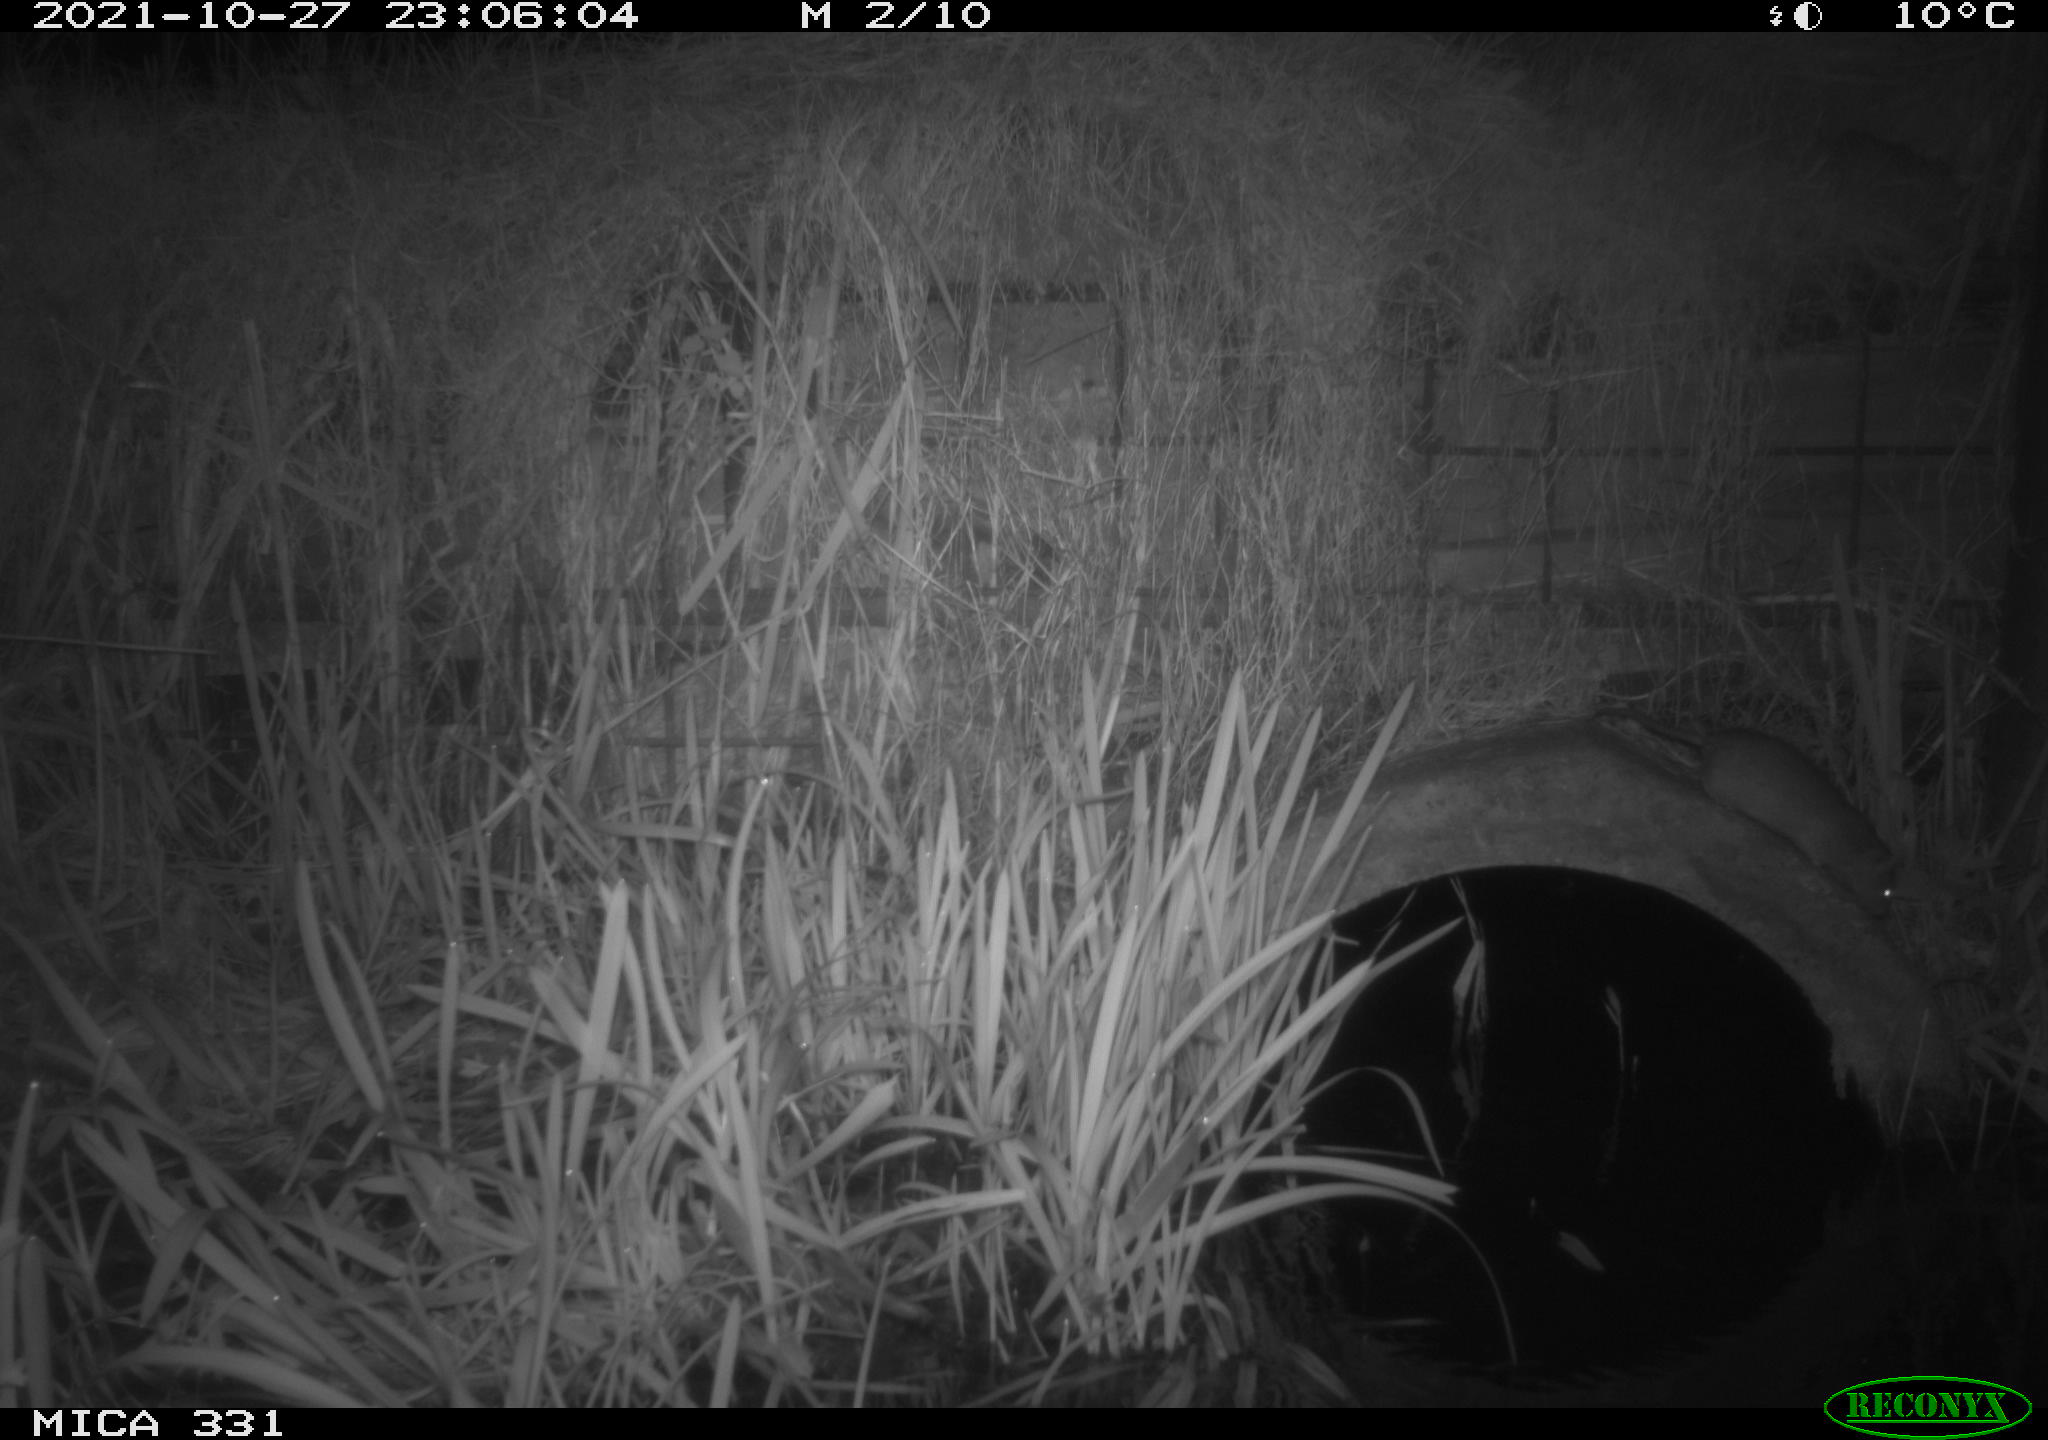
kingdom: Animalia
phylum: Chordata
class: Mammalia
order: Rodentia
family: Muridae
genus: Rattus
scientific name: Rattus norvegicus
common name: Brown rat
